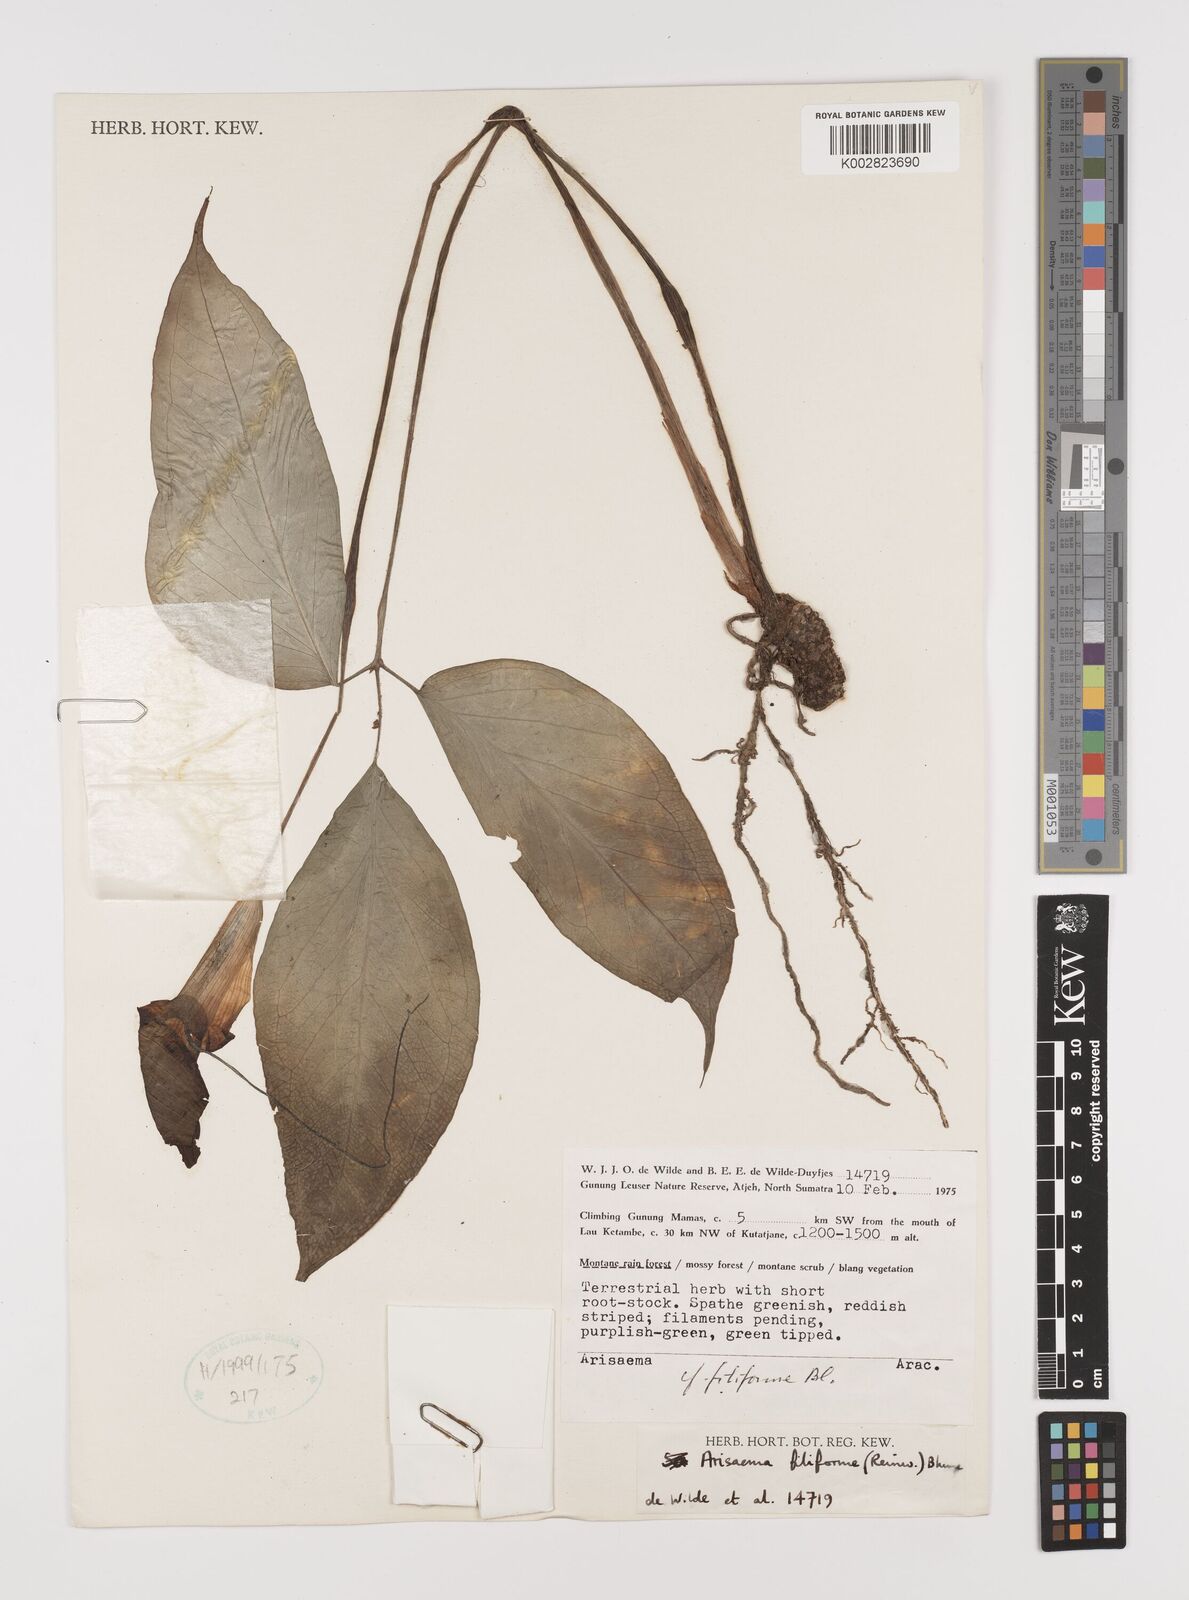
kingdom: Plantae
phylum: Tracheophyta
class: Liliopsida
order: Alismatales
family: Araceae
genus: Arisaema
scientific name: Arisaema filiforme
